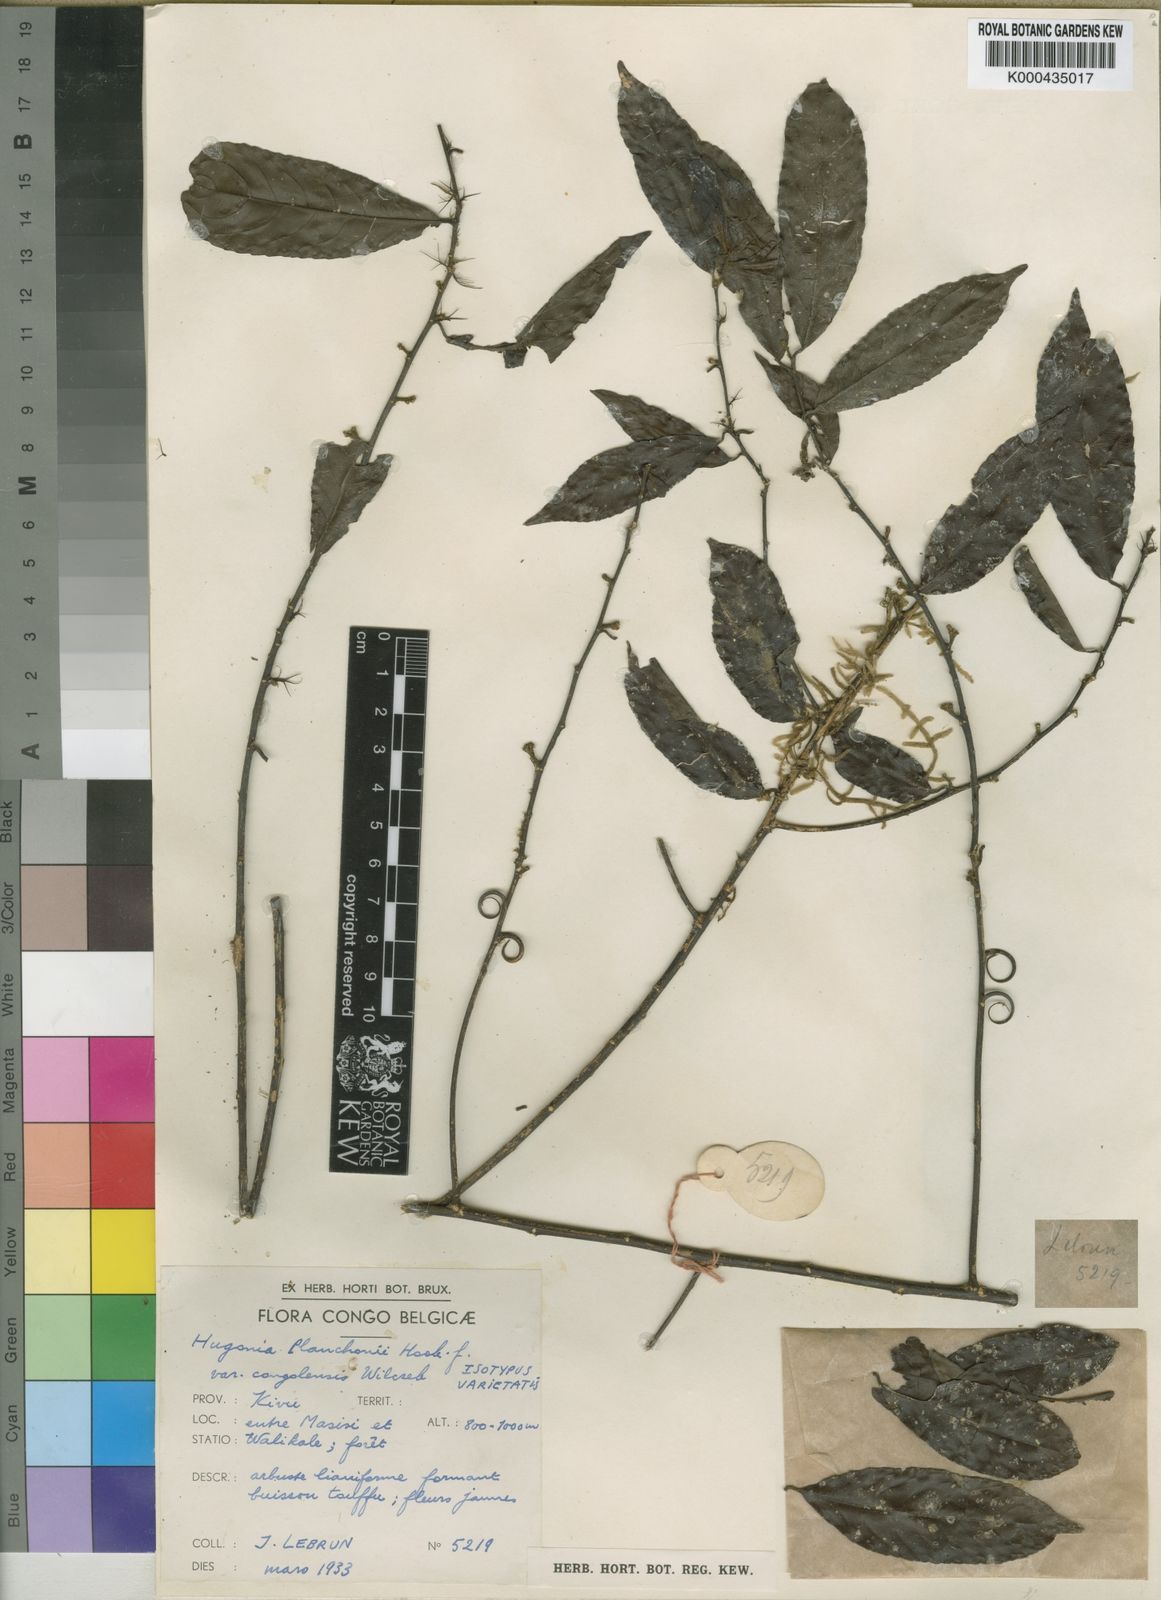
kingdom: Plantae
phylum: Tracheophyta
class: Magnoliopsida
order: Malpighiales
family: Linaceae
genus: Hugonia
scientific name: Hugonia planchonii
